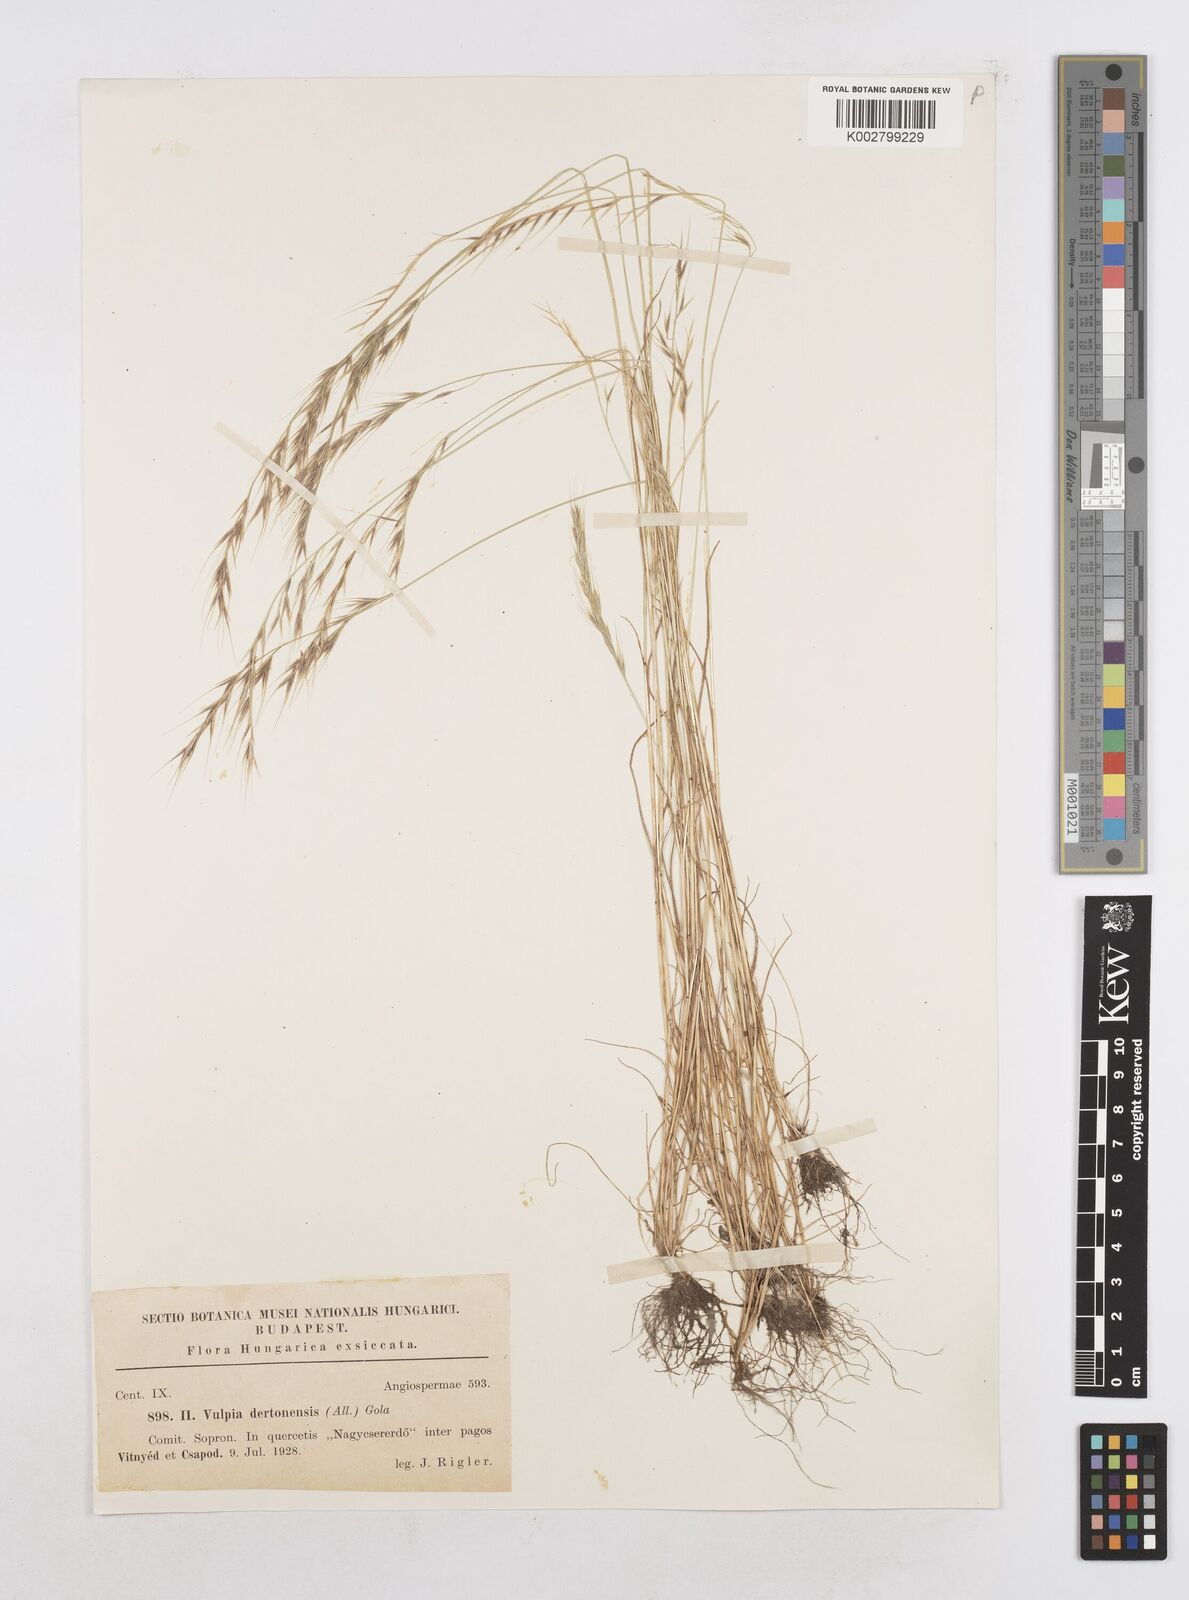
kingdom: Plantae
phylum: Tracheophyta
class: Liliopsida
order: Poales
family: Poaceae
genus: Festuca
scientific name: Festuca bromoides
